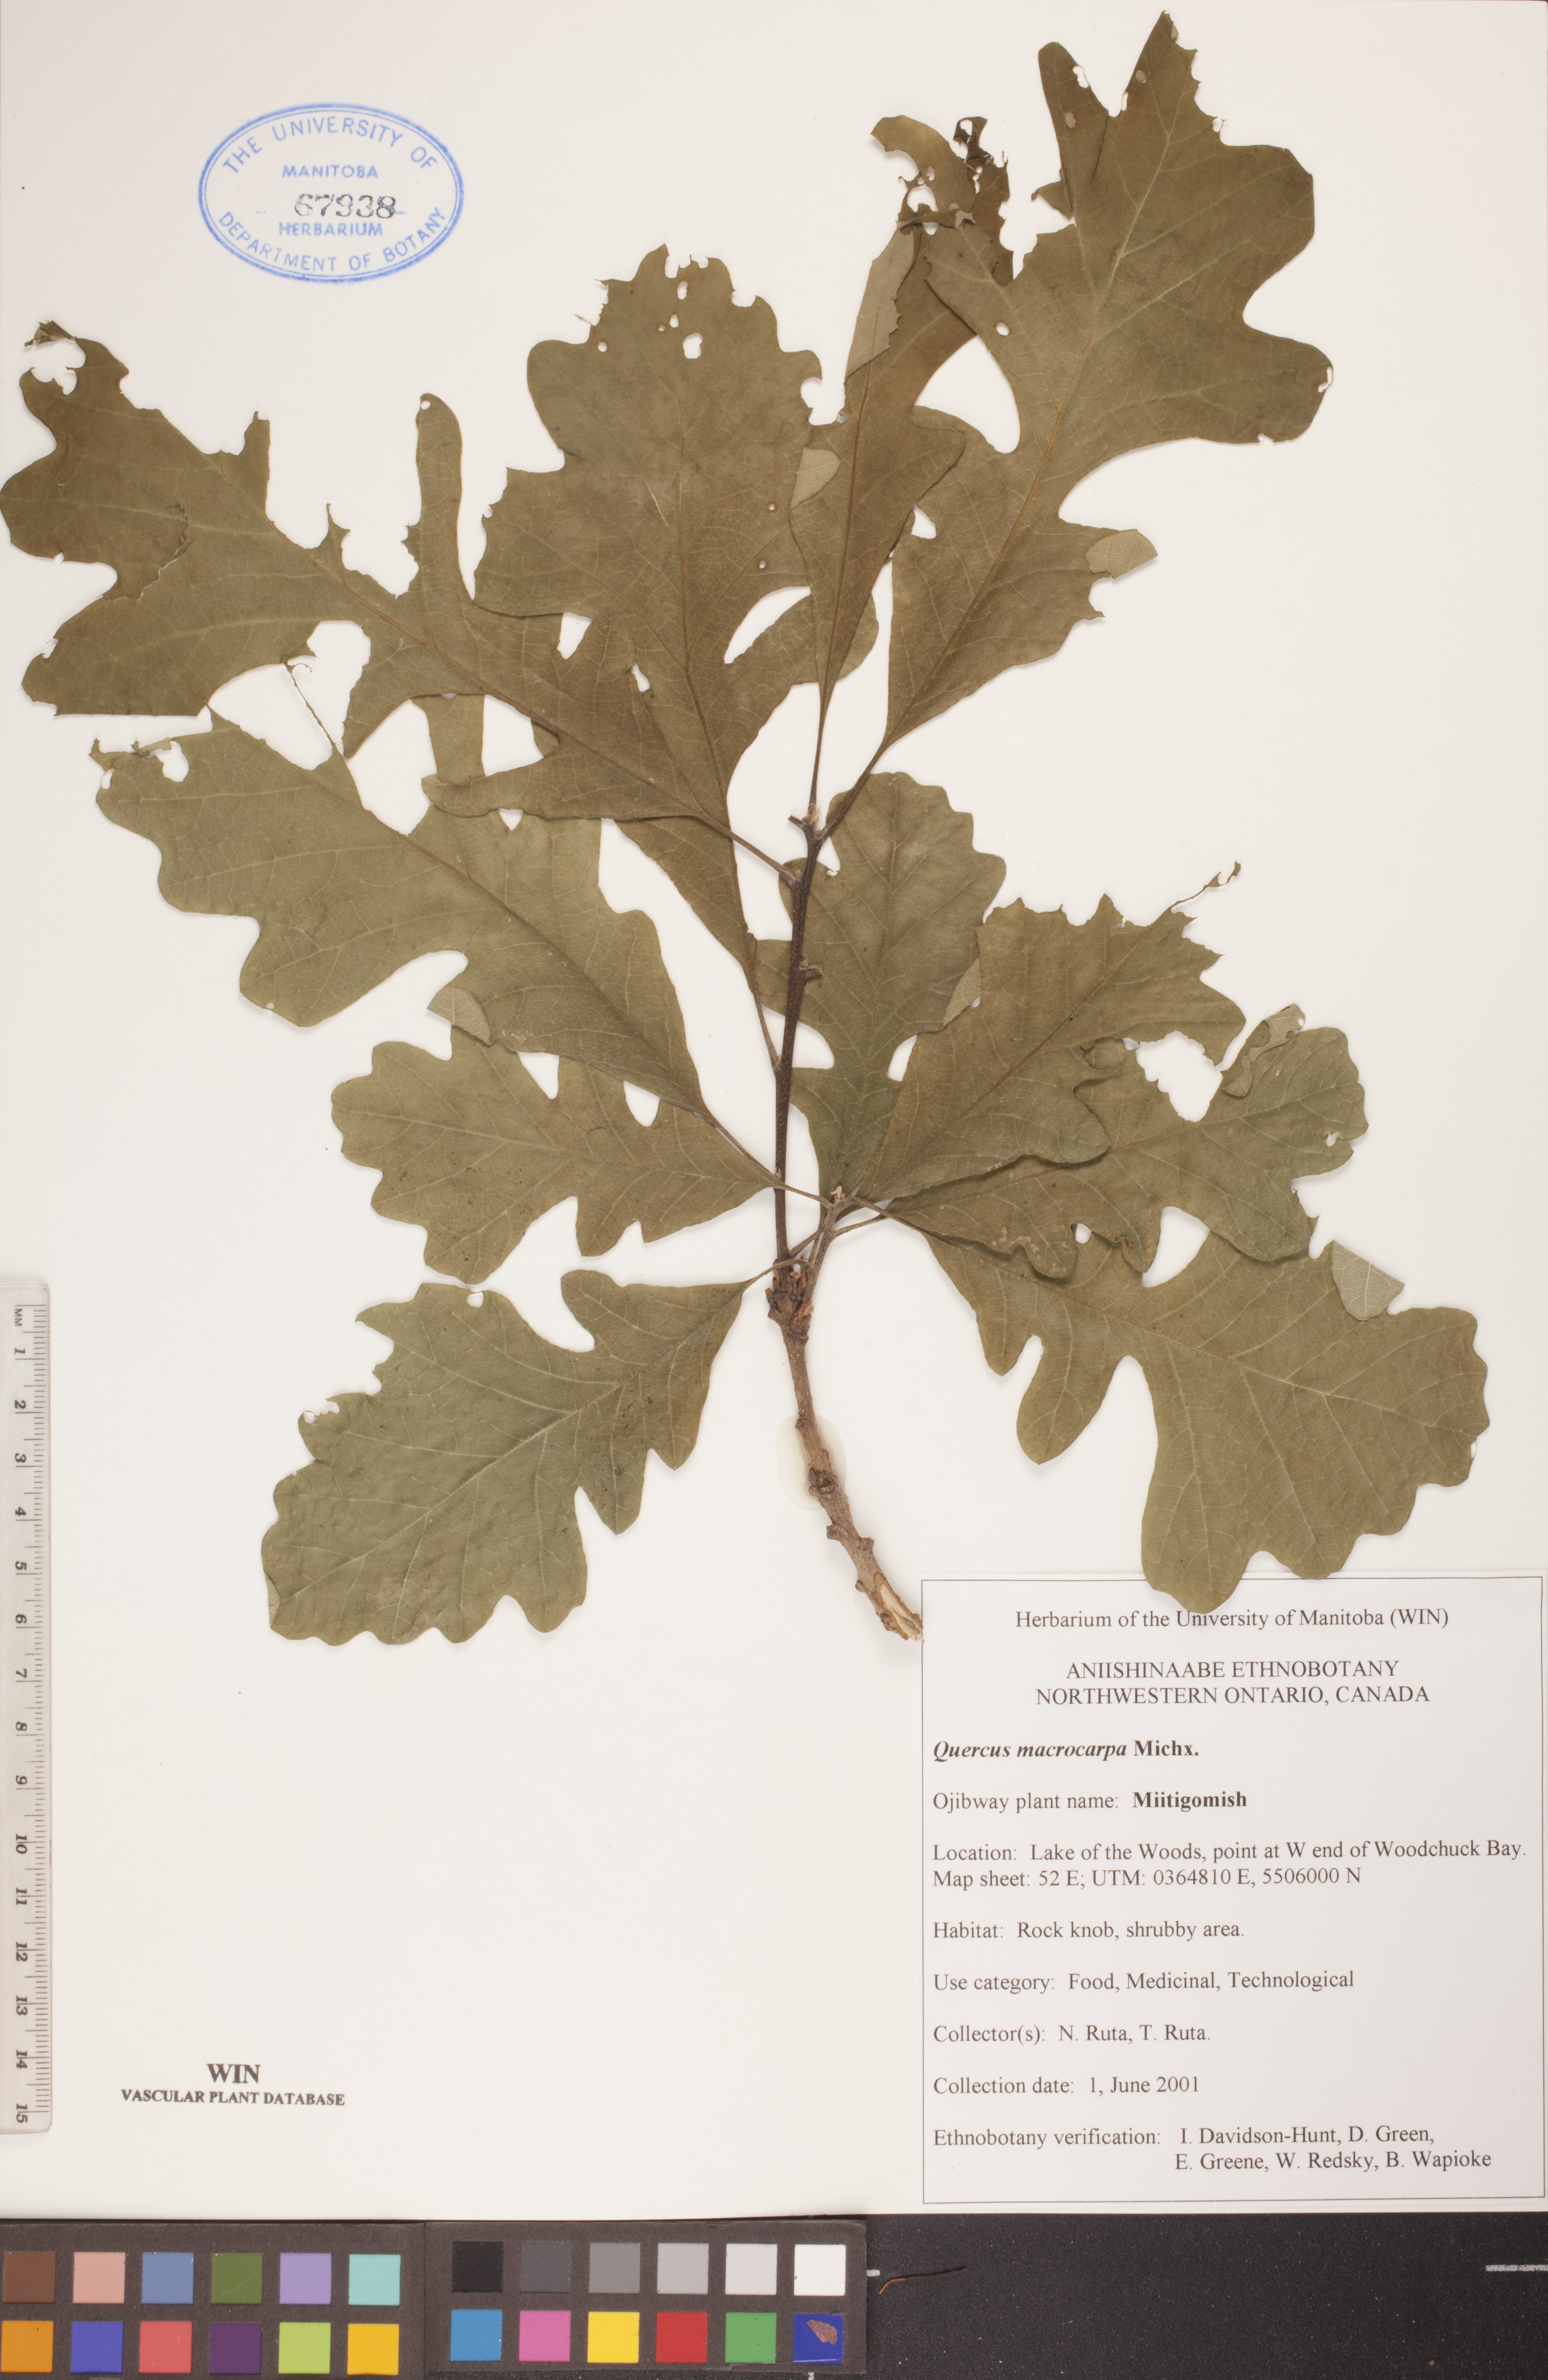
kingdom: Plantae
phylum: Tracheophyta
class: Magnoliopsida
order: Fagales
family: Fagaceae
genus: Quercus
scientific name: Quercus macrocarpa
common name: Bur oak
